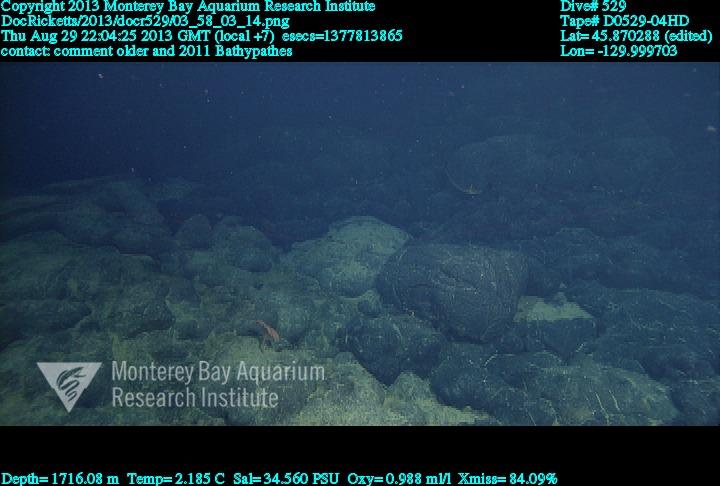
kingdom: Animalia
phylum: Cnidaria
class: Anthozoa
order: Antipatharia
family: Schizopathidae
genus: Bathypathes
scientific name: Bathypathes
